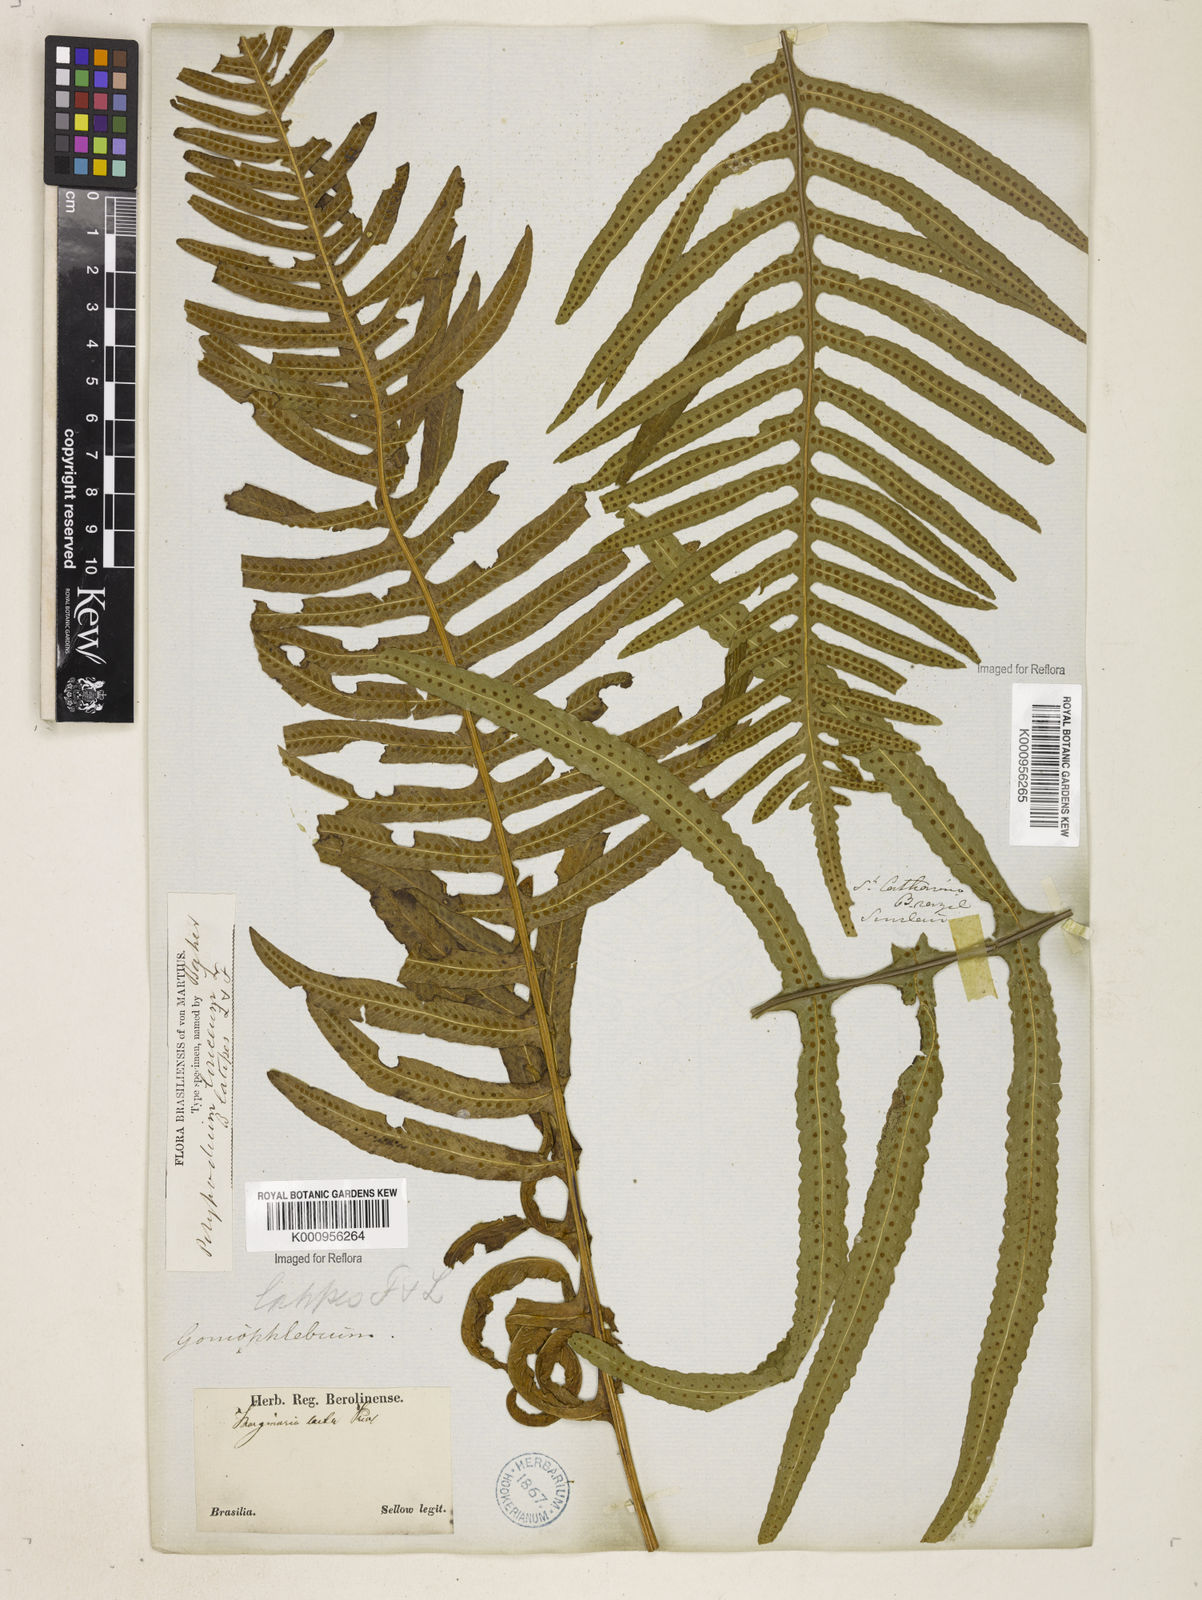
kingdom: Plantae
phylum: Tracheophyta
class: Polypodiopsida
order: Polypodiales
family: Polypodiaceae
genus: Serpocaulon
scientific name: Serpocaulon loriceum
